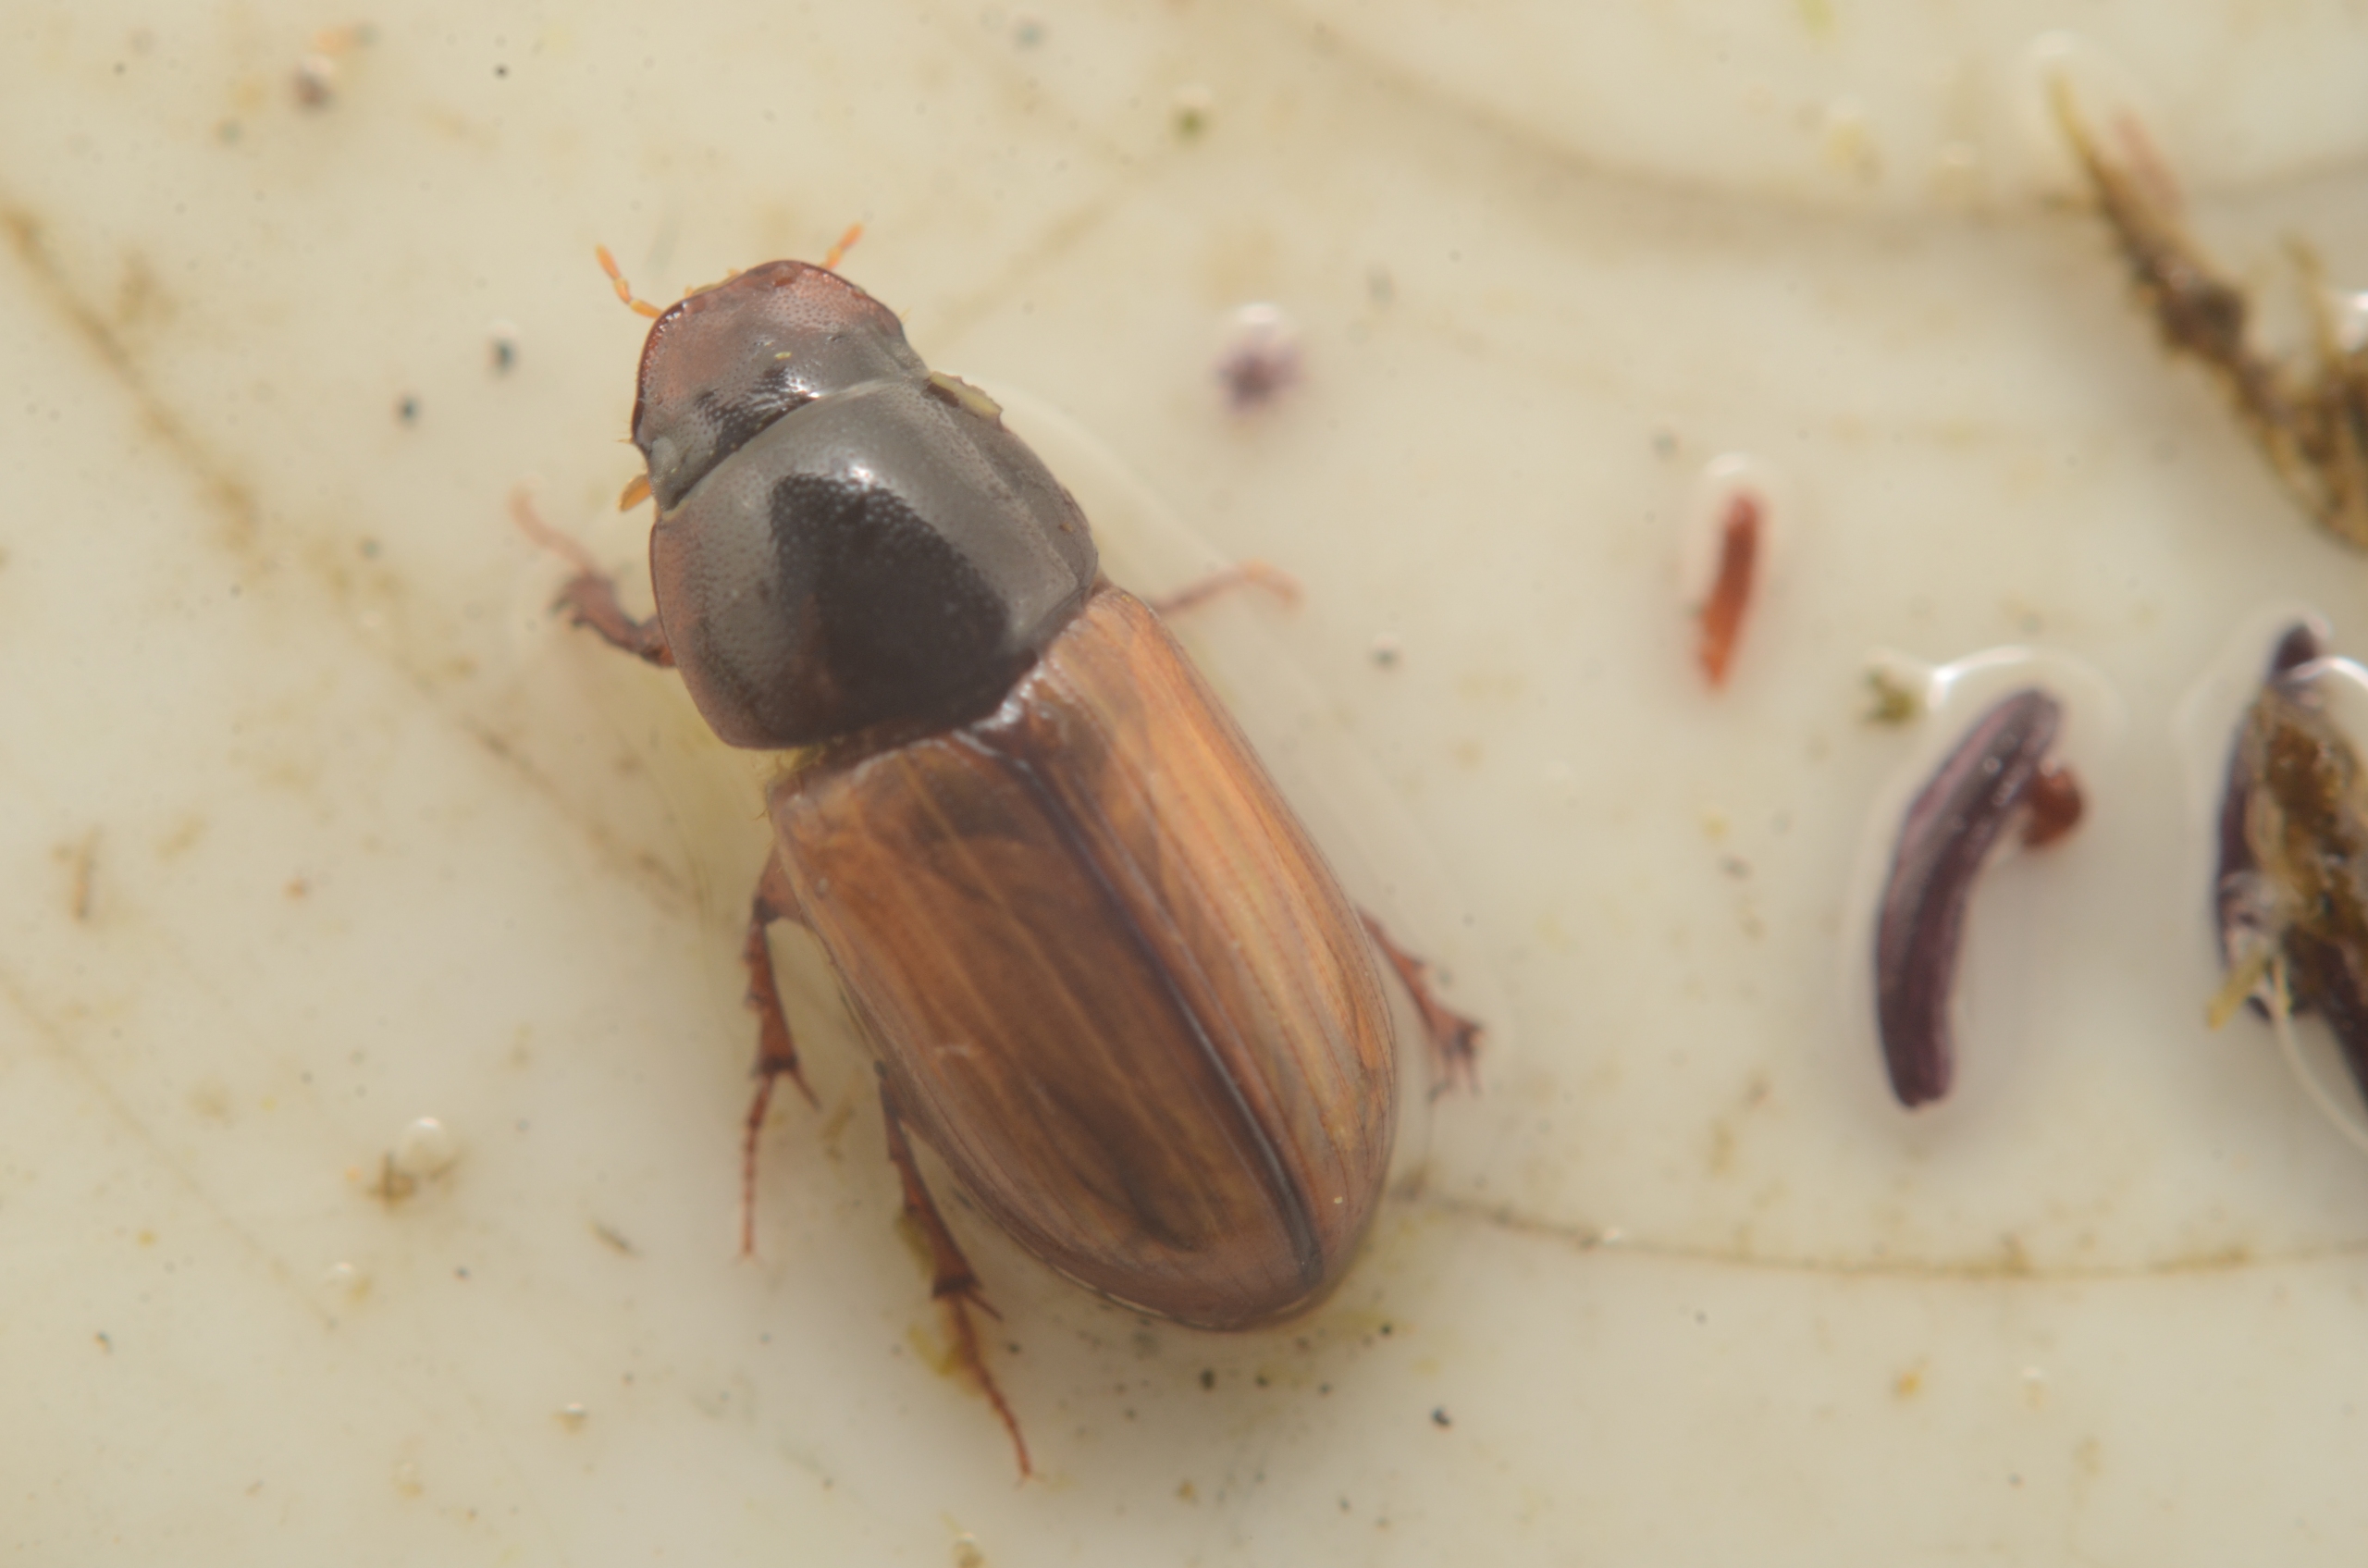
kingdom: Animalia
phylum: Arthropoda
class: Insecta
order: Coleoptera
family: Scarabaeidae
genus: Bodiloides
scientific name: Bodiloides ictericus
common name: Slank møgbille
